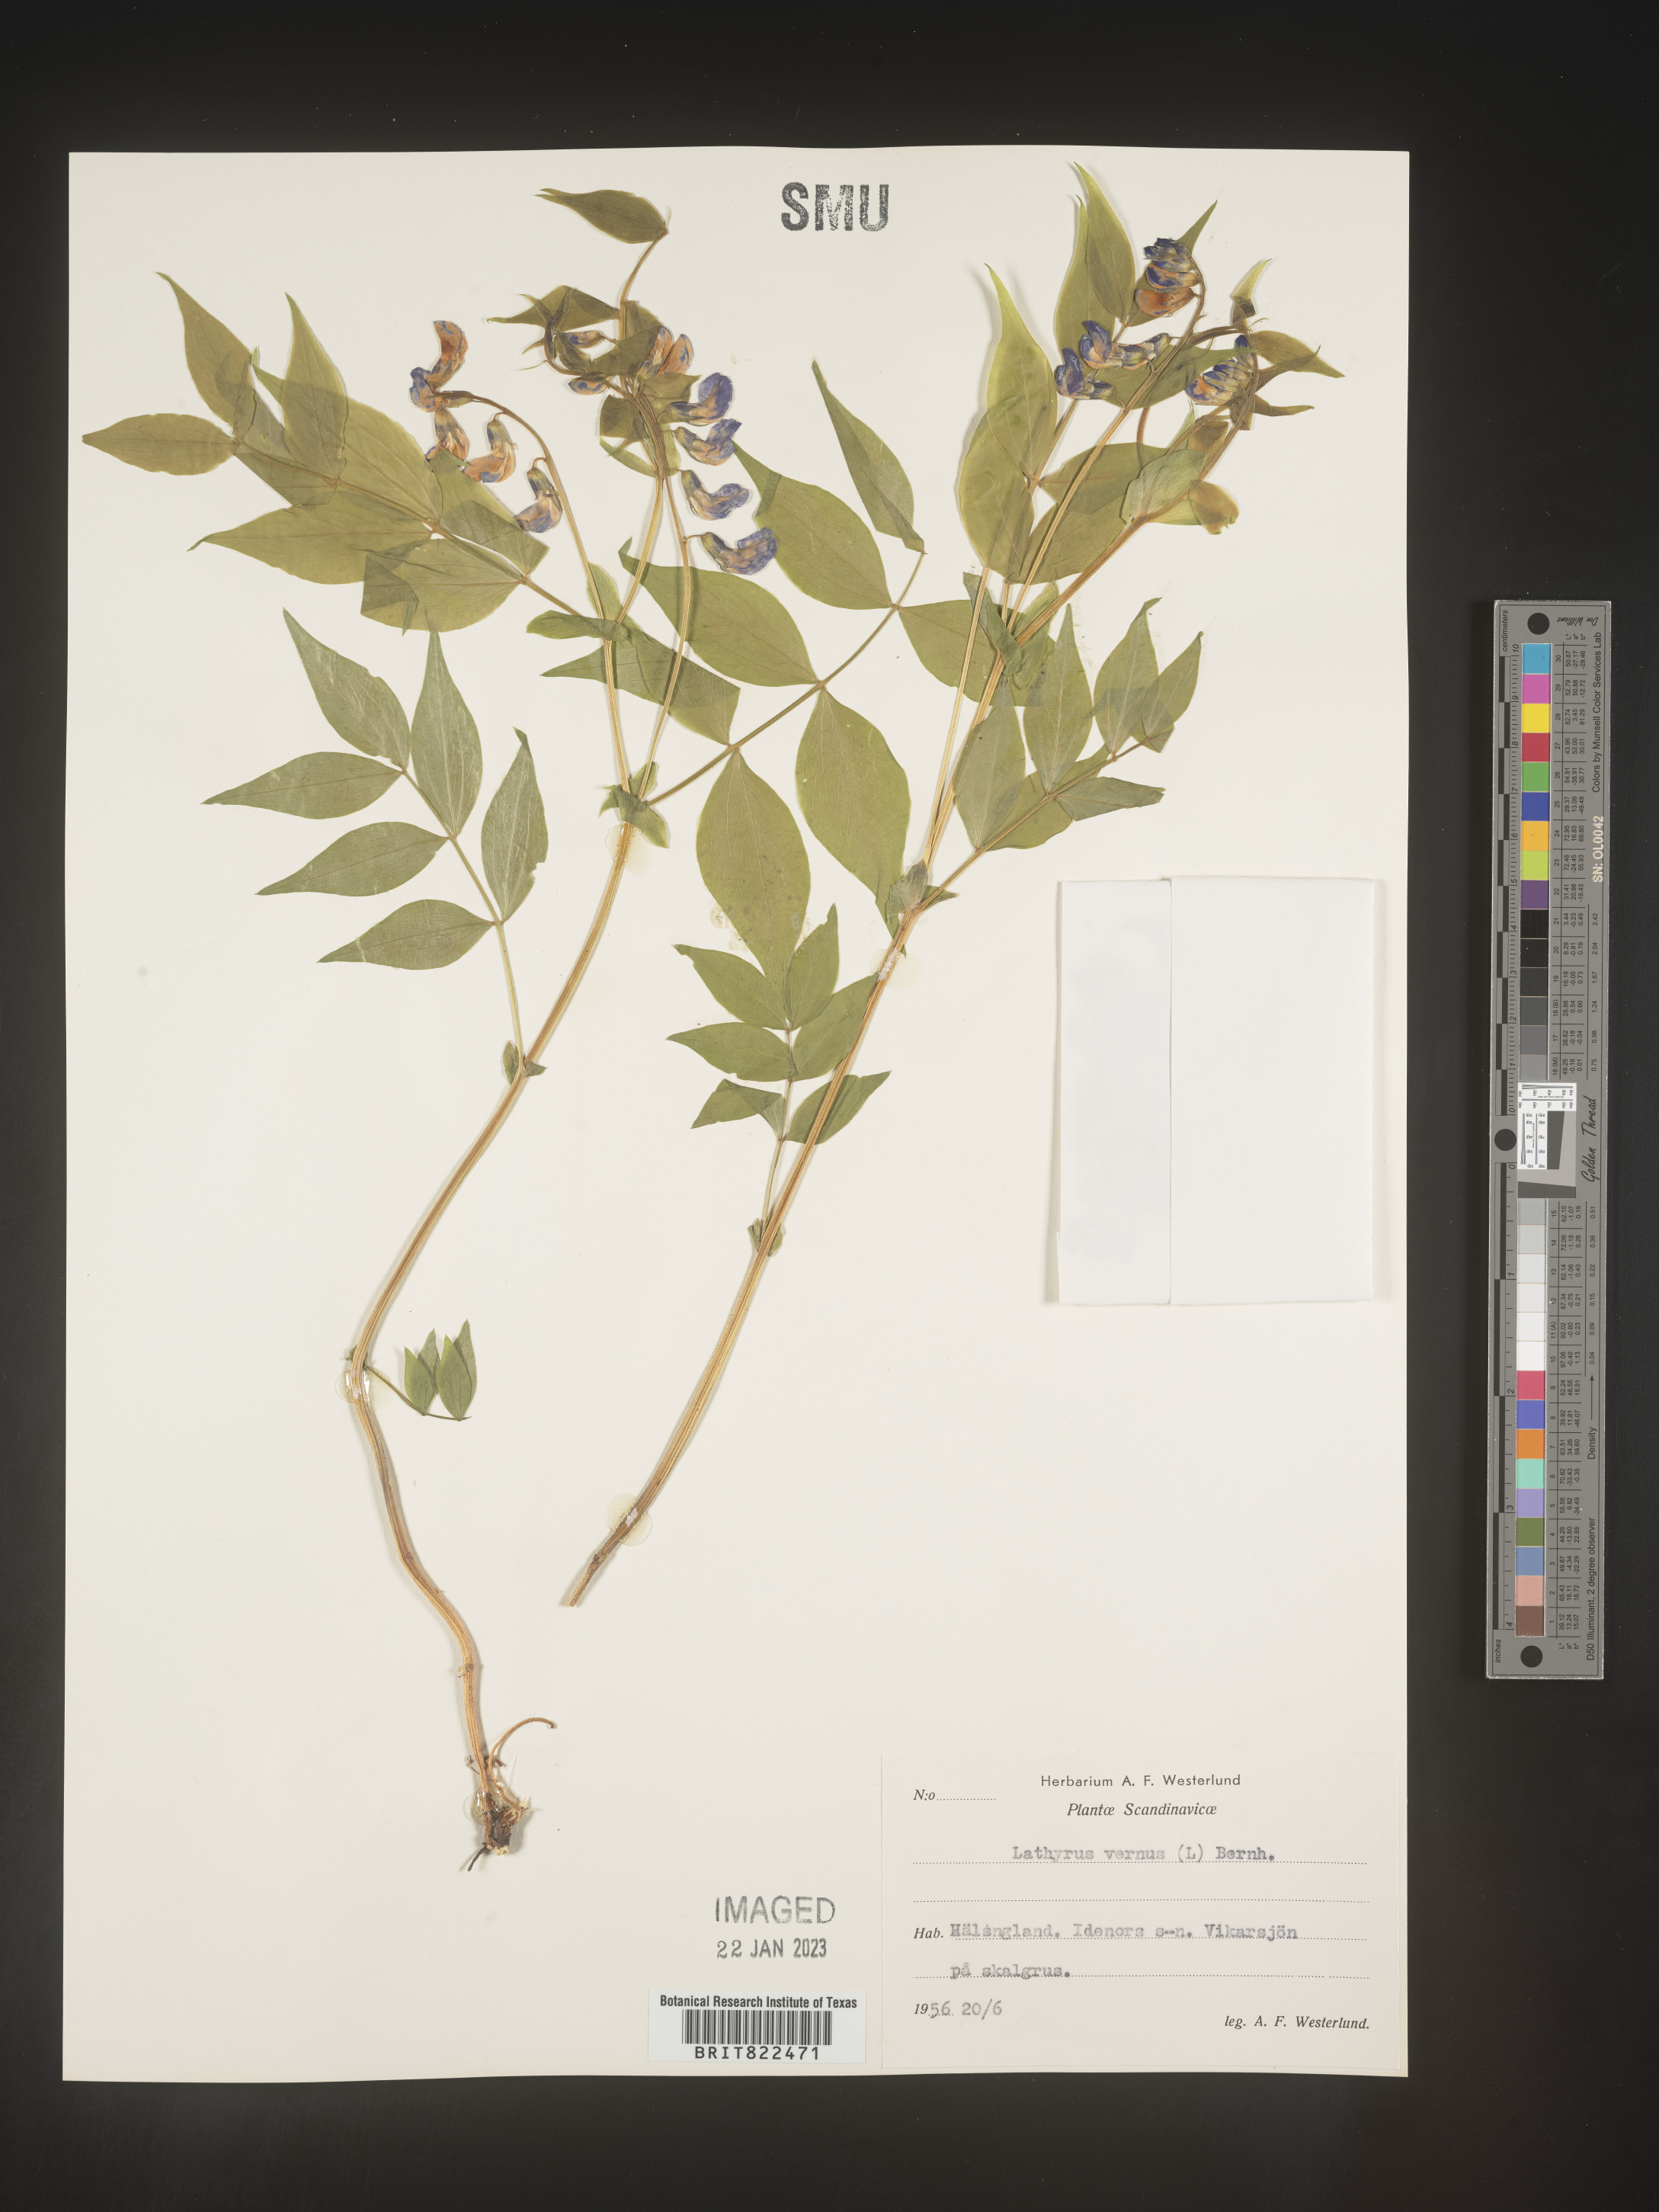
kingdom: Plantae
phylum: Tracheophyta
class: Magnoliopsida
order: Fabales
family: Fabaceae
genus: Lathyrus
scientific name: Lathyrus
